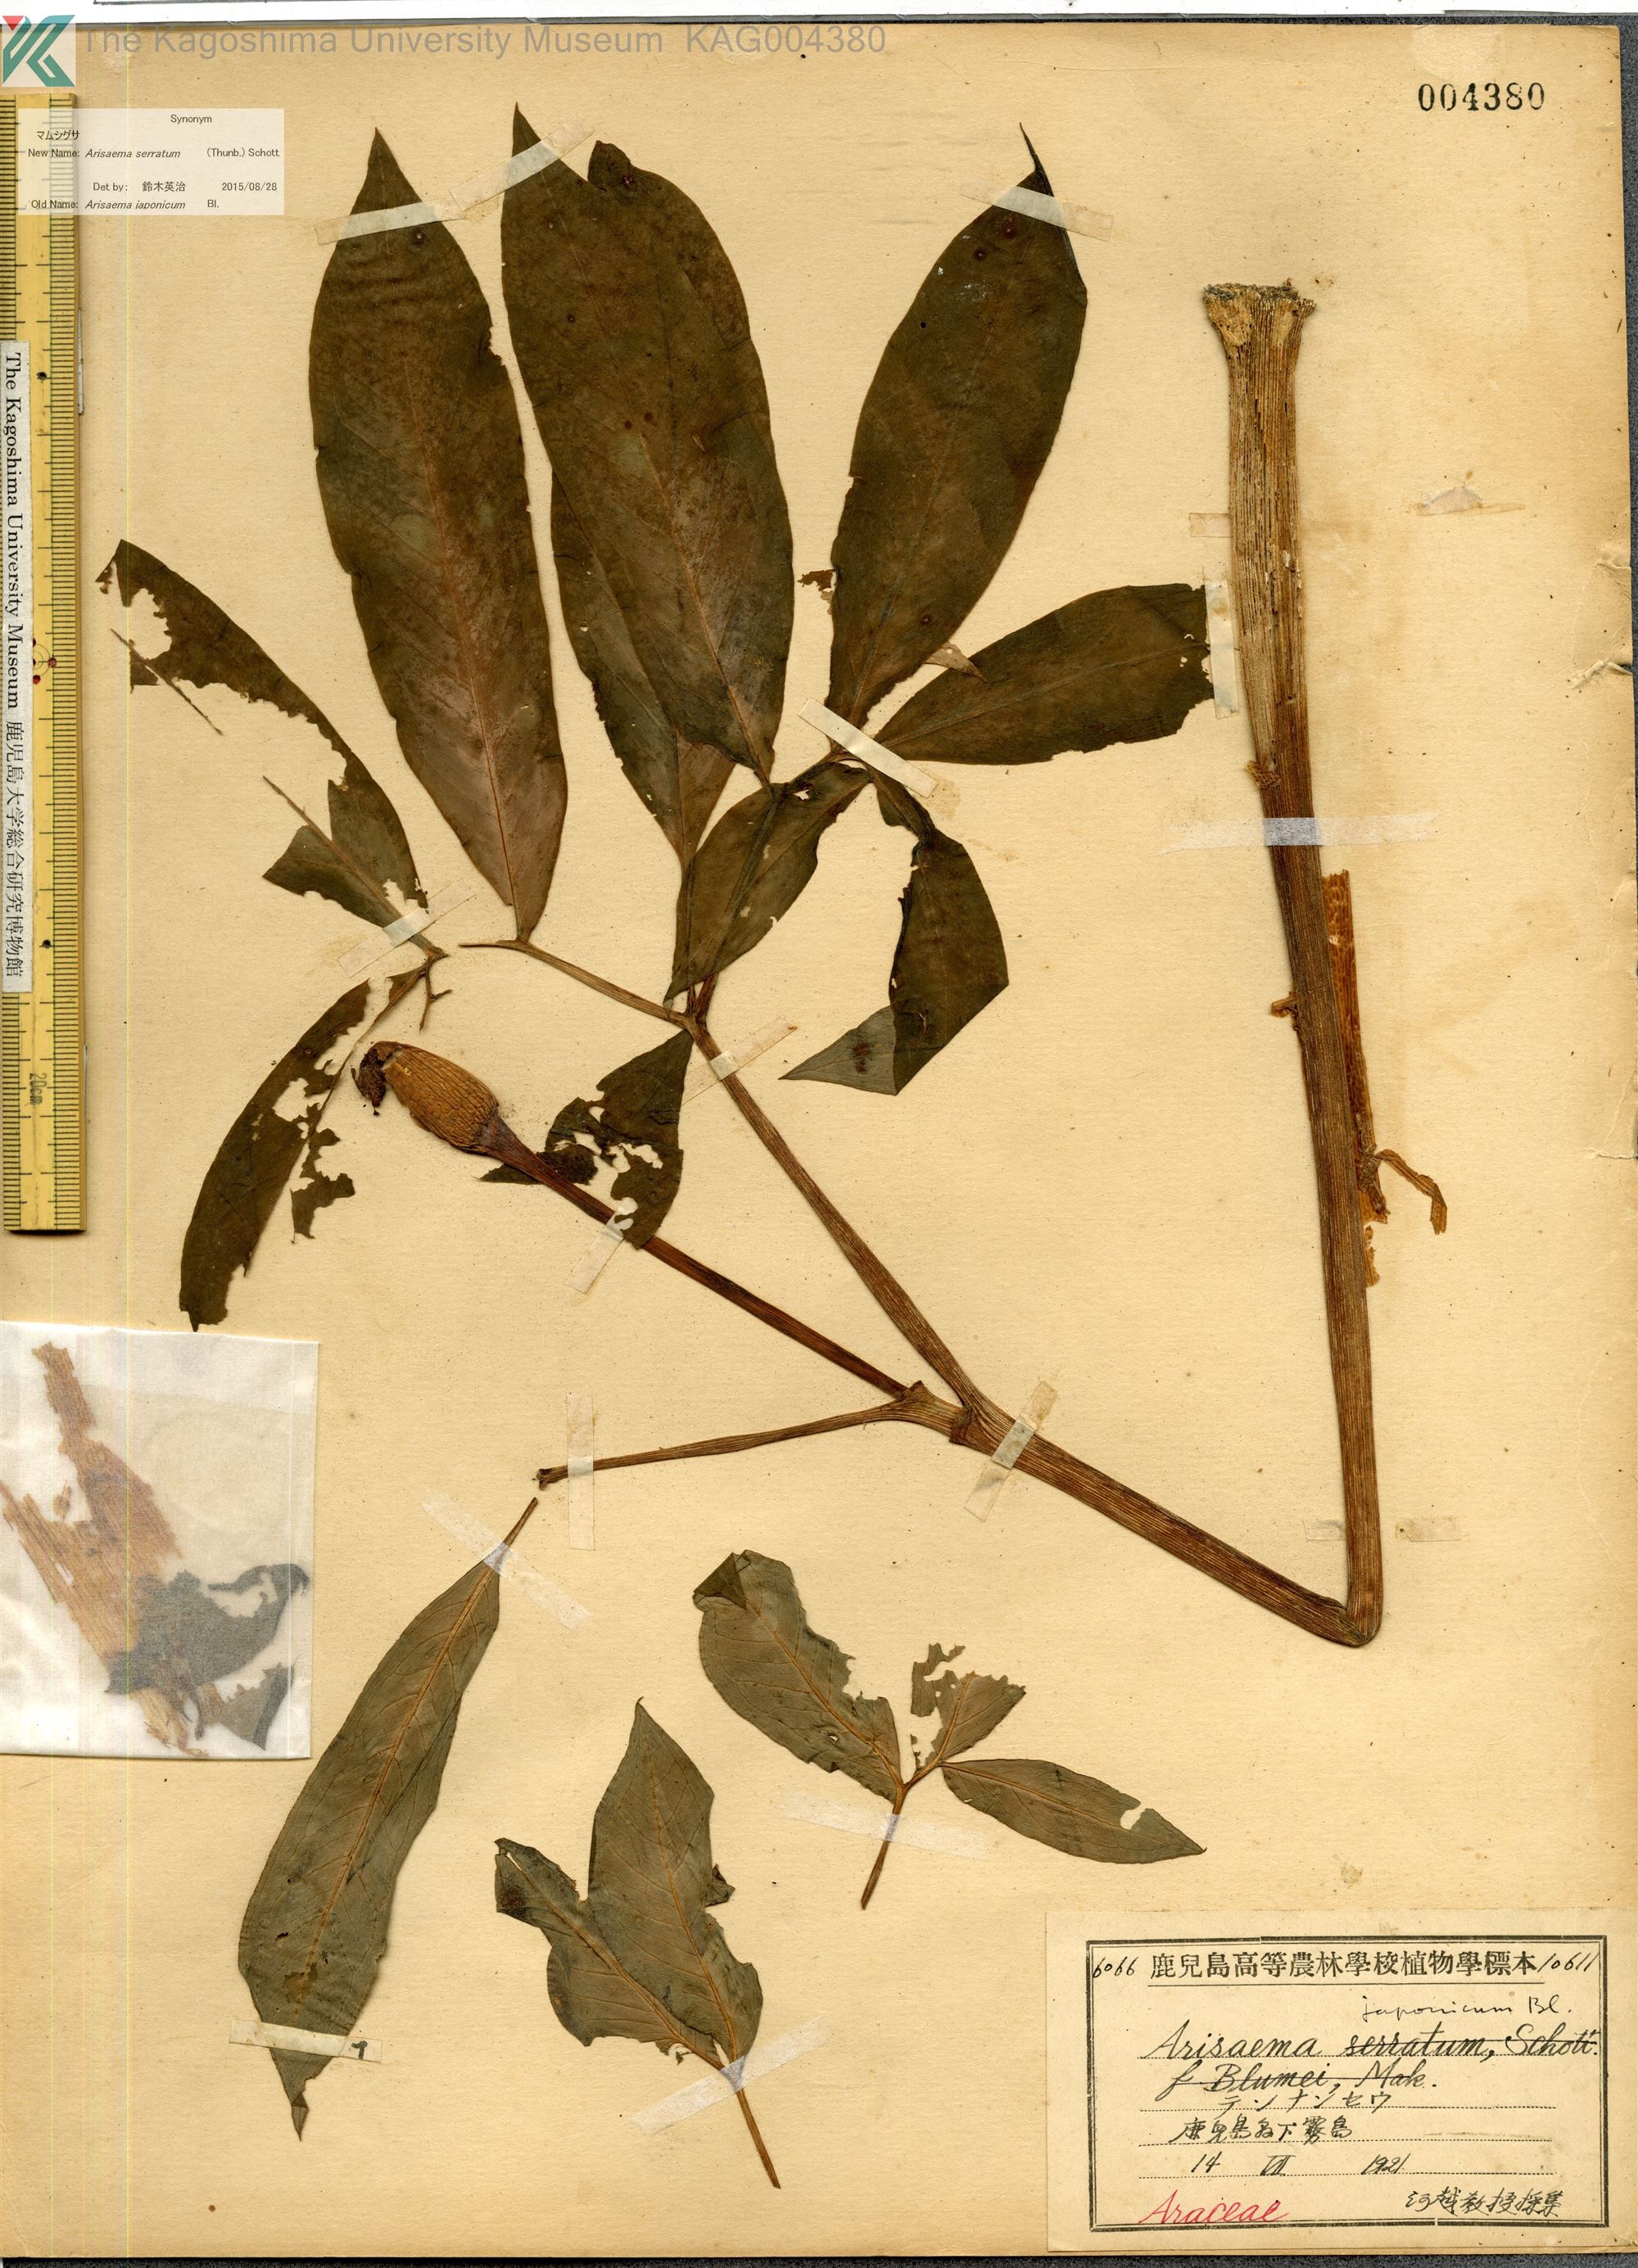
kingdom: Plantae
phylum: Tracheophyta
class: Liliopsida
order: Alismatales
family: Araceae
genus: Arisaema
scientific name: Arisaema serratum
